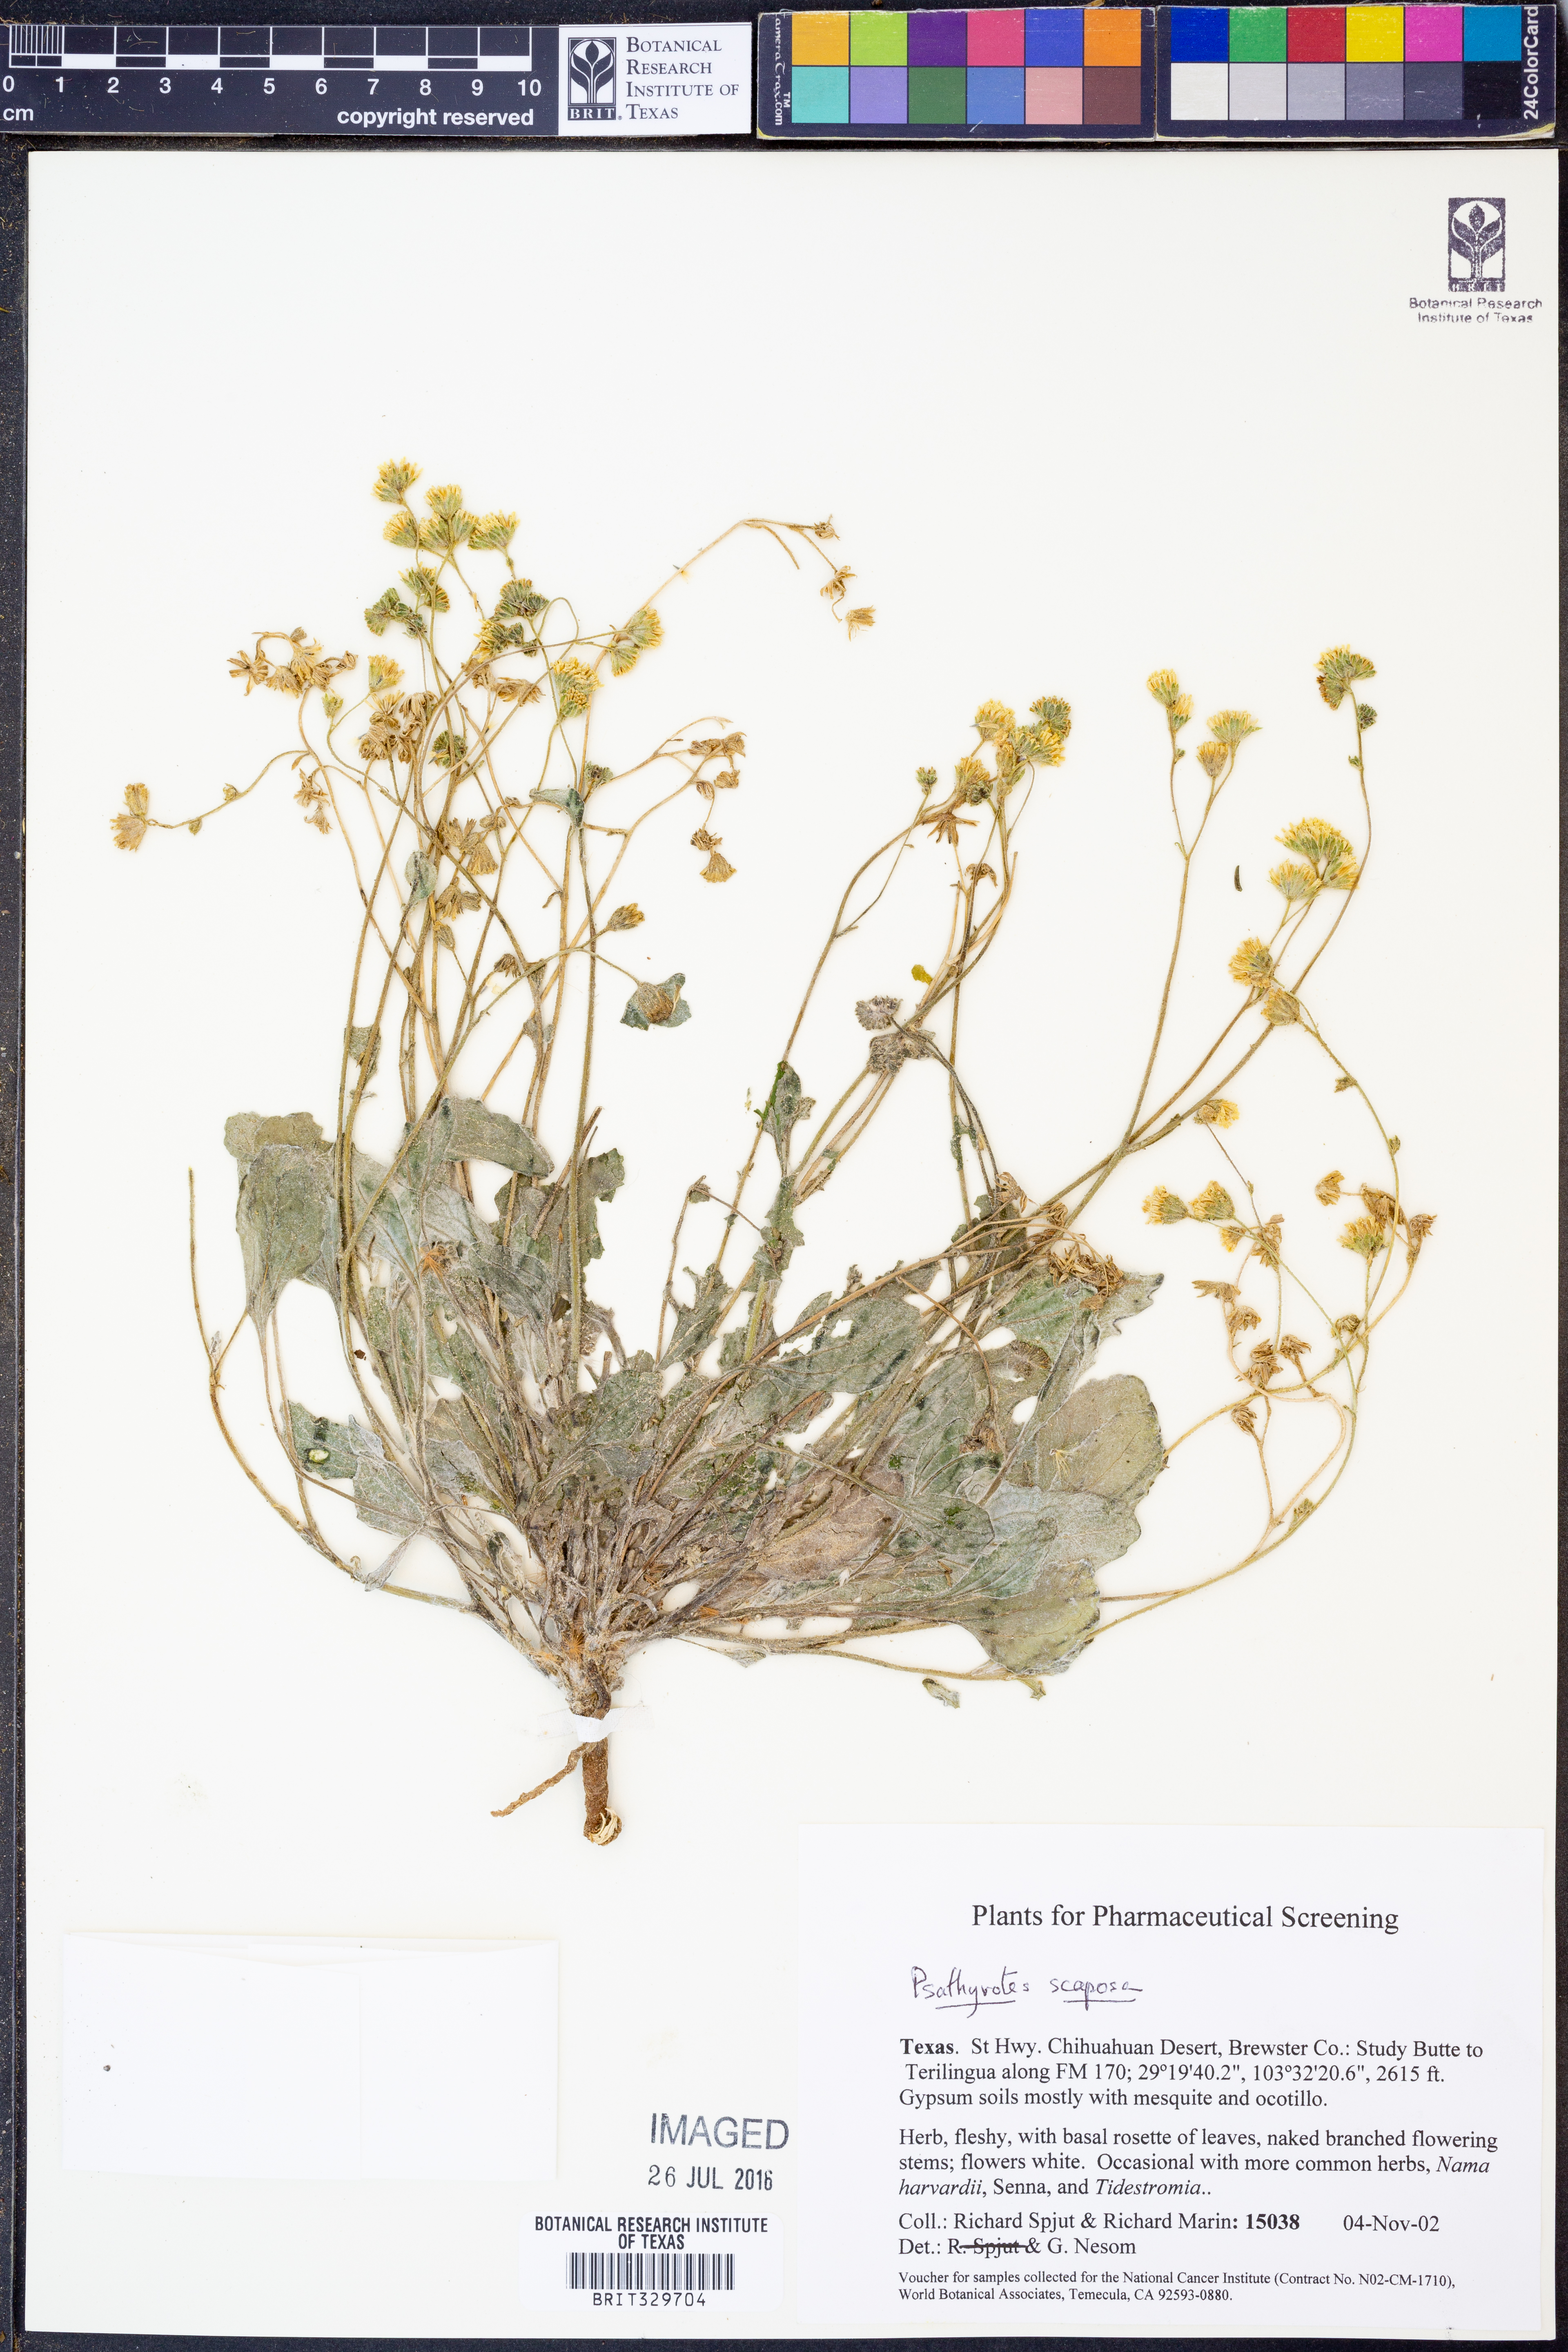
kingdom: Plantae
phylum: Tracheophyta
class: Magnoliopsida
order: Asterales
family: Asteraceae
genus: Psathyrotopsis
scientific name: Psathyrotopsis scaposa
